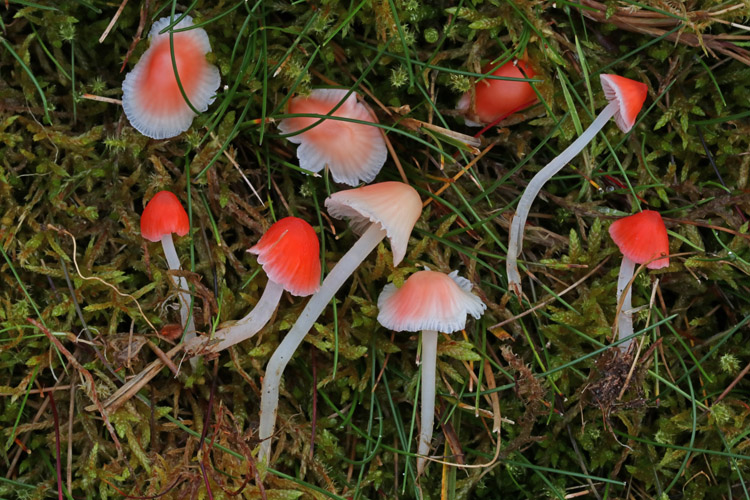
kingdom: Fungi
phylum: Basidiomycota
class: Agaricomycetes
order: Agaricales
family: Mycenaceae
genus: Atheniella
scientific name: Atheniella adonis
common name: rønnerød huesvamp
